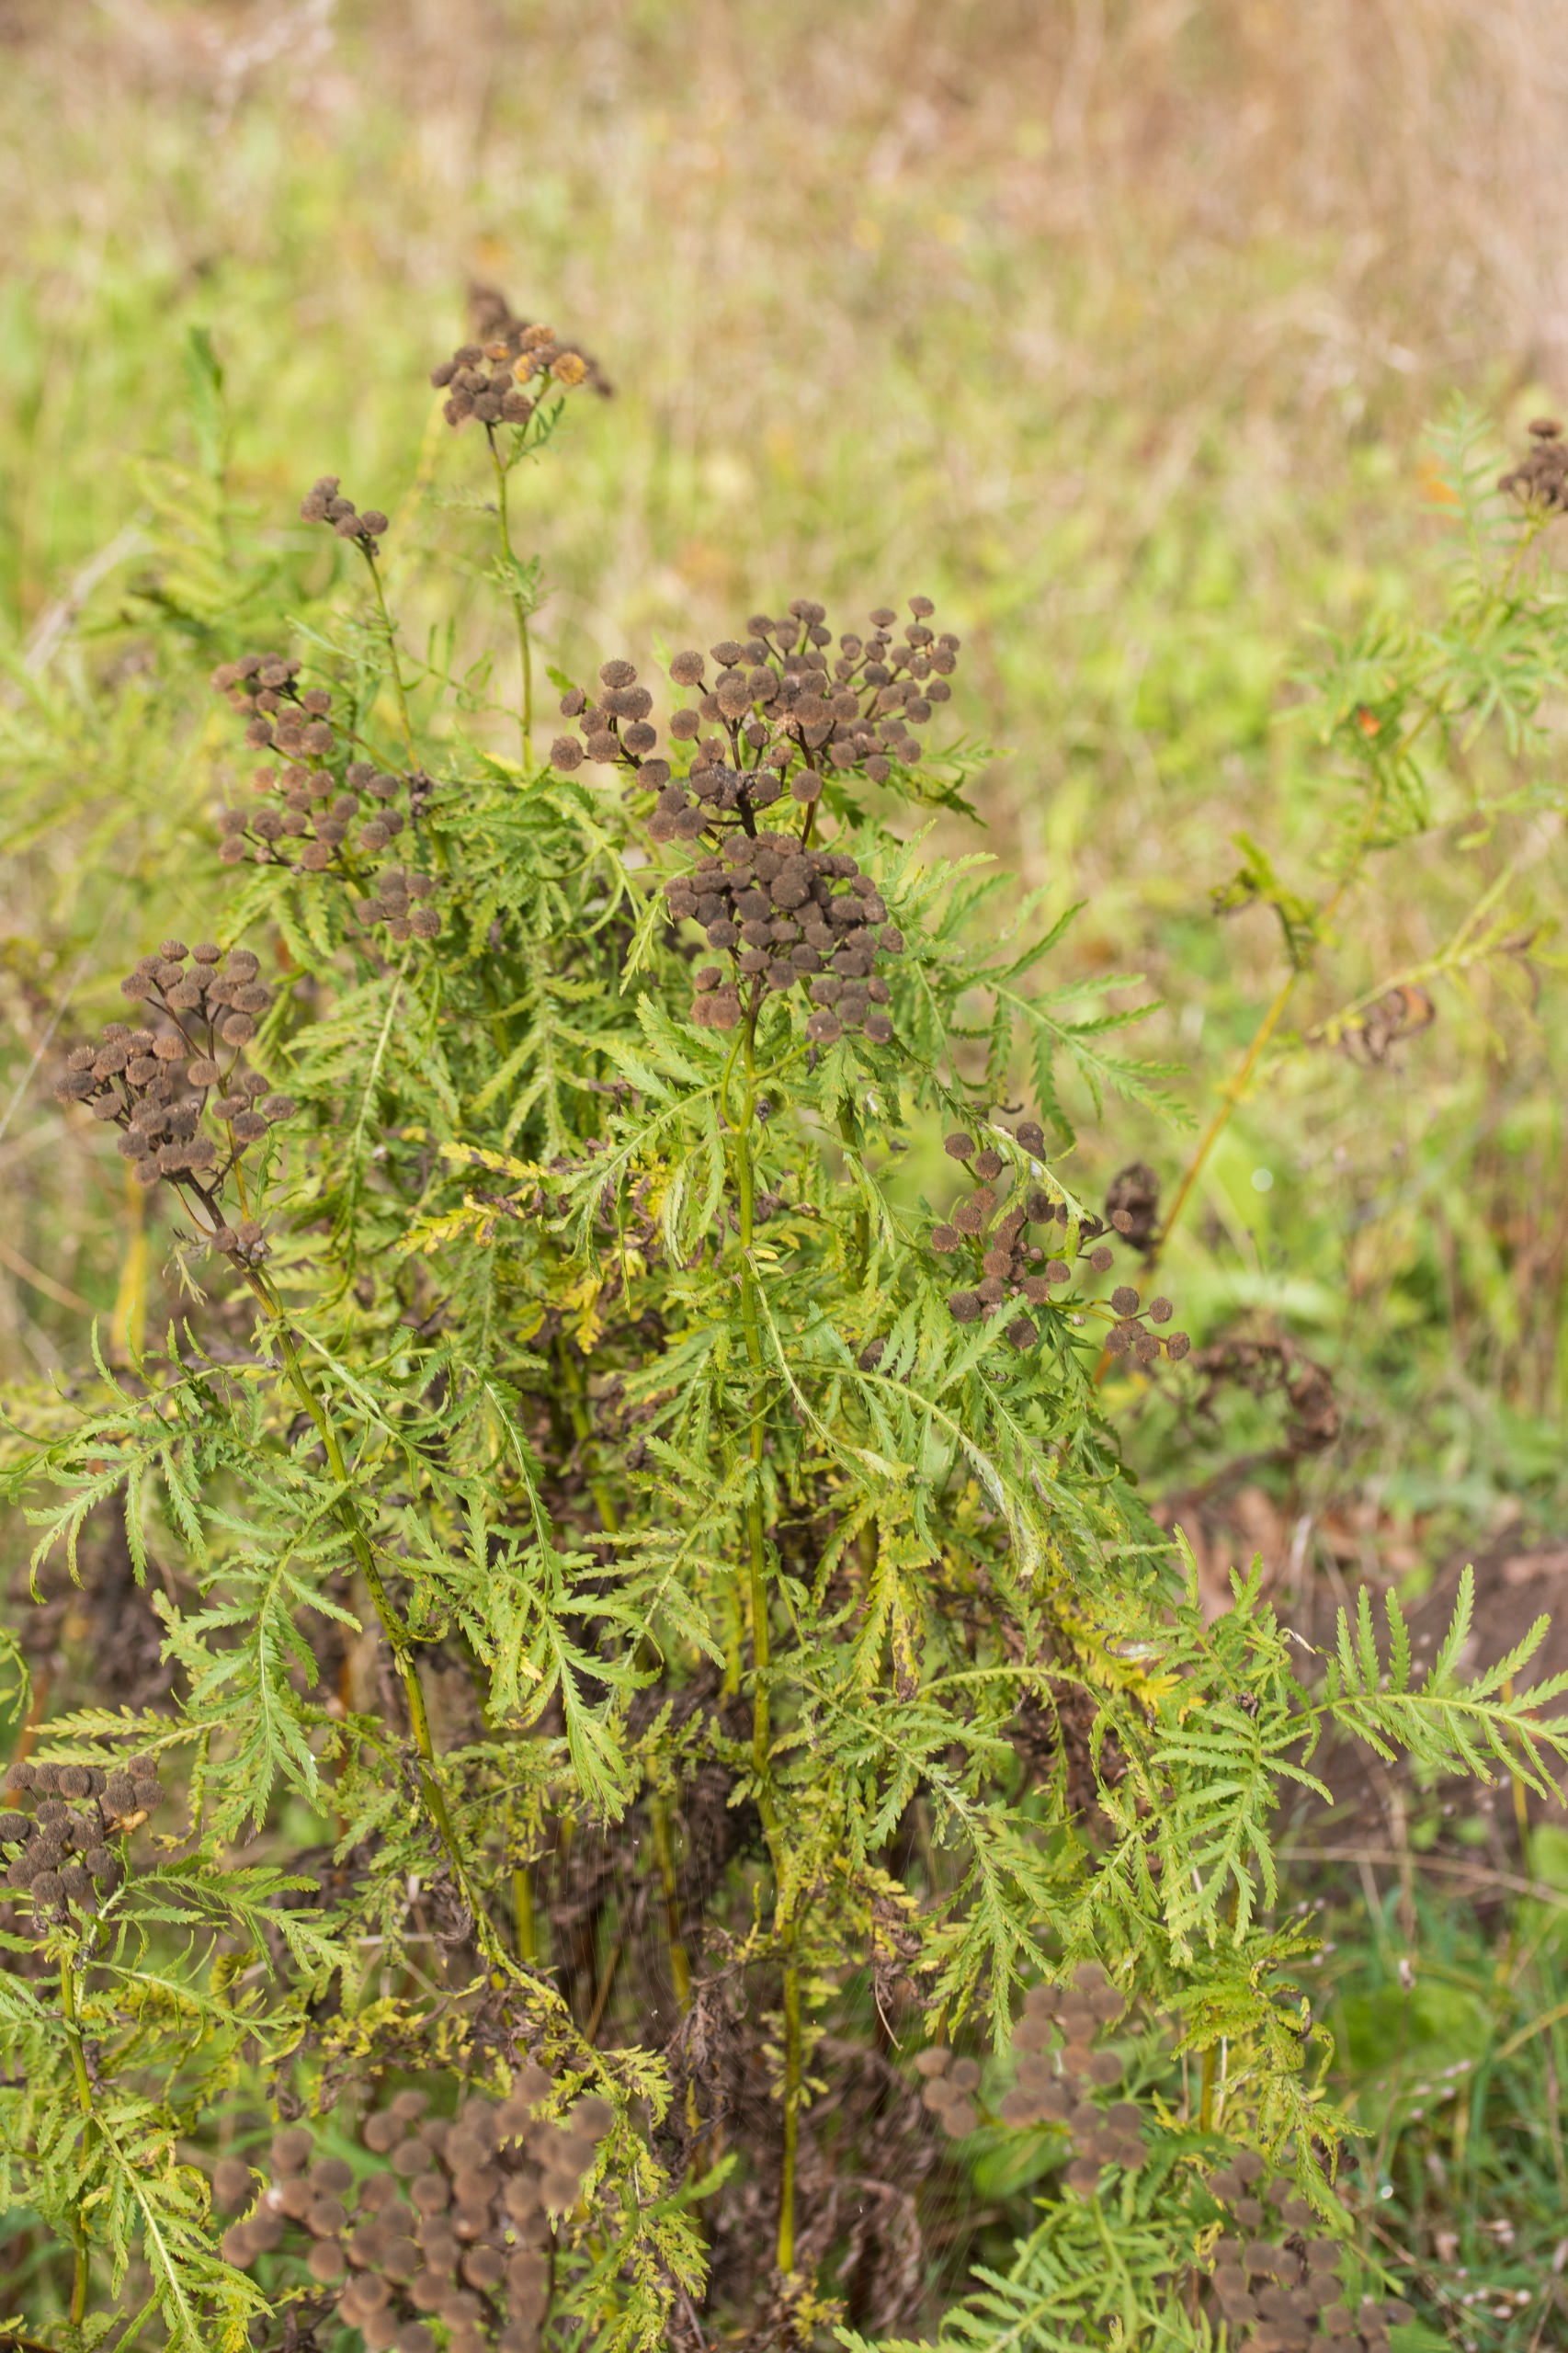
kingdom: Plantae
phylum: Tracheophyta
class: Magnoliopsida
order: Asterales
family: Asteraceae
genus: Tanacetum
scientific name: Tanacetum vulgare
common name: Rejnfan
